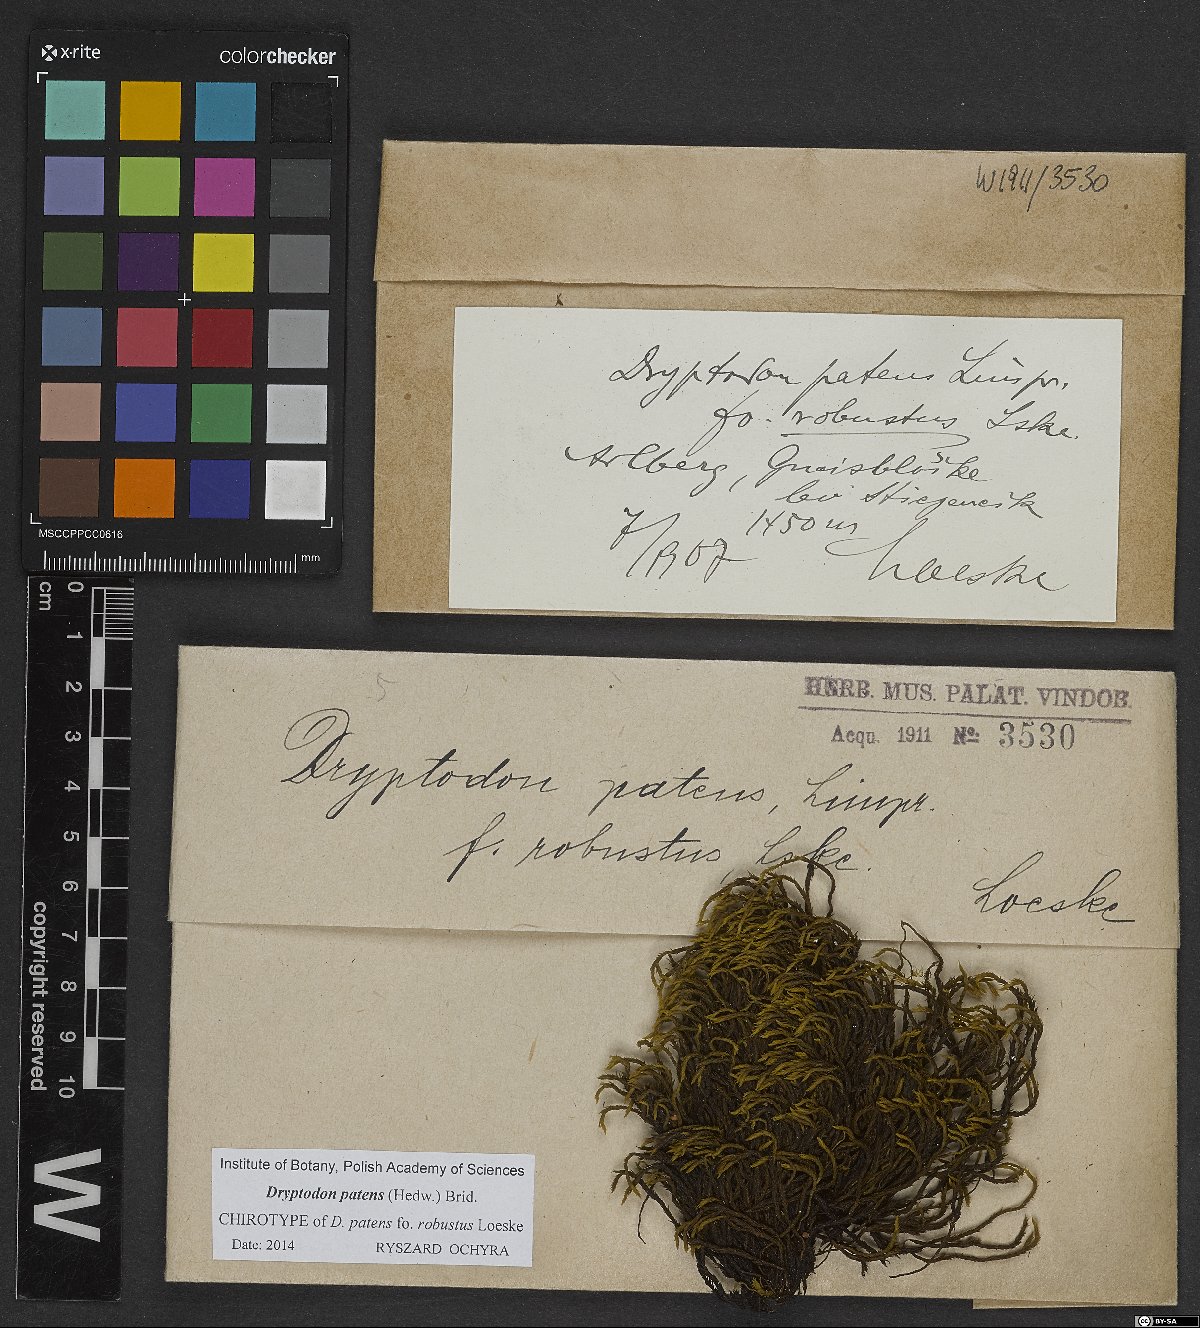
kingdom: Plantae
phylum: Bryophyta
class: Bryopsida
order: Grimmiales
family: Grimmiaceae
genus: Grimmia
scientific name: Grimmia ramondii
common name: Spreading-leaved grimmia
